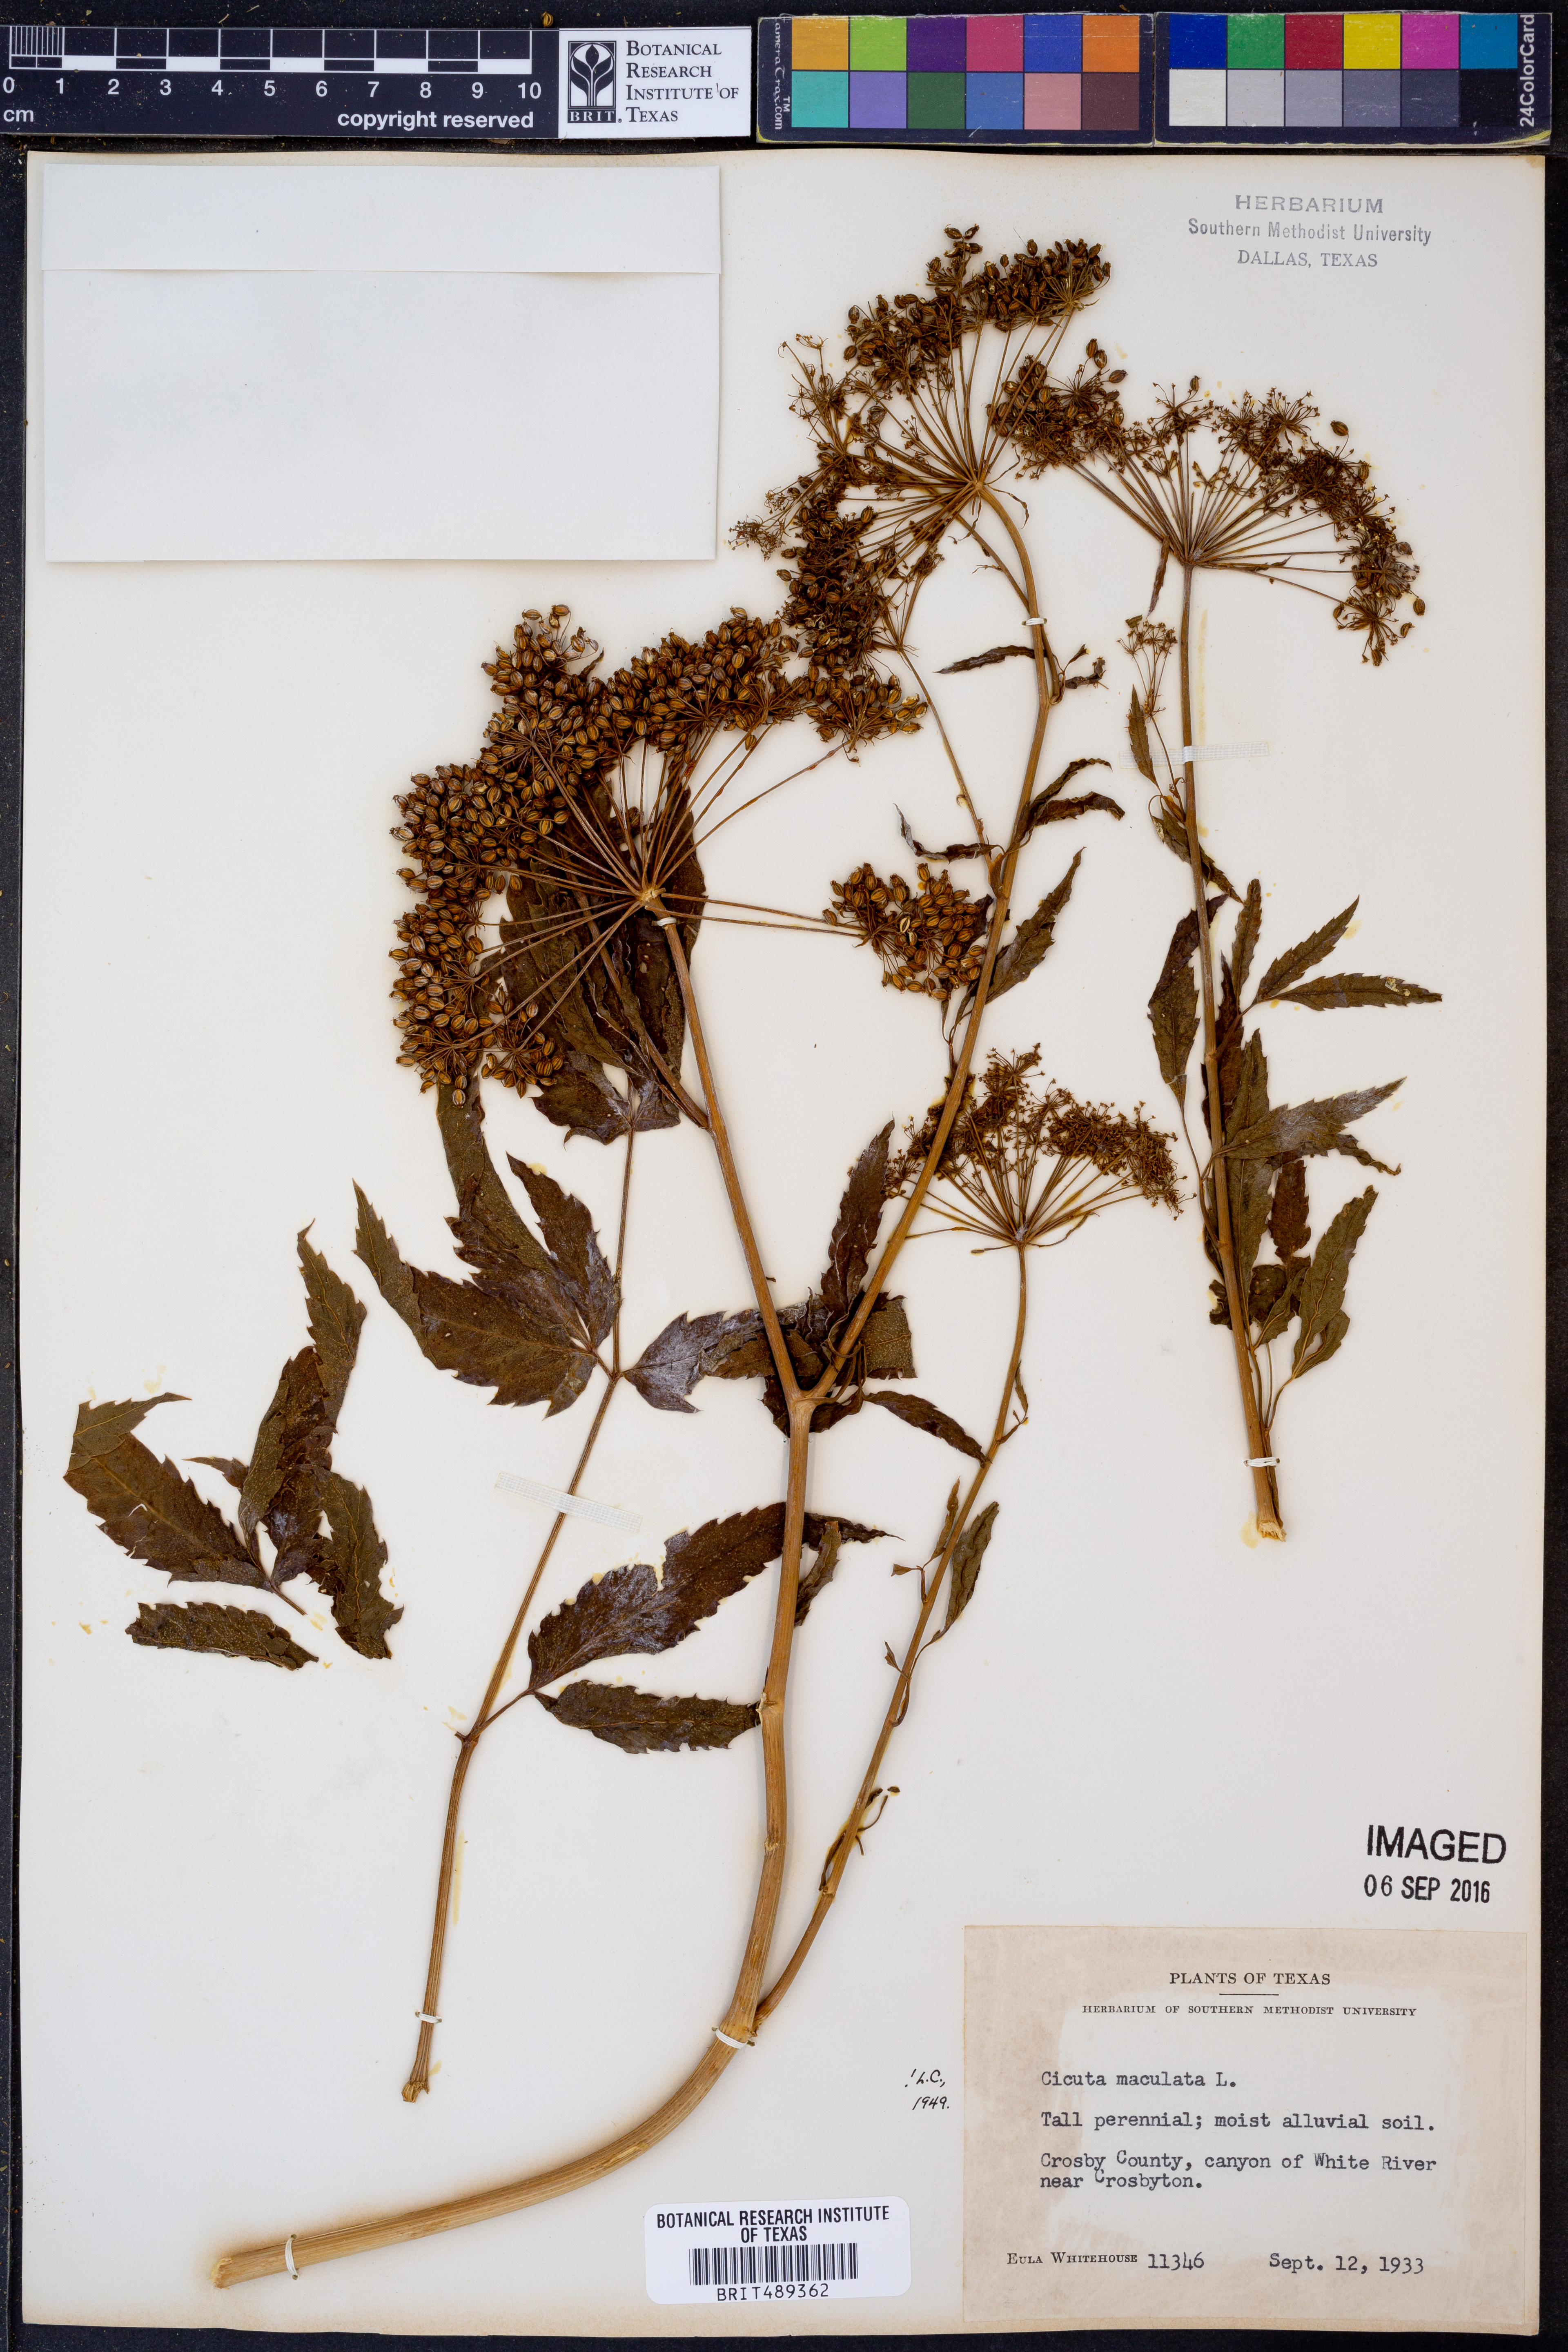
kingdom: Plantae
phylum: Tracheophyta
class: Magnoliopsida
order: Apiales
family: Apiaceae
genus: Cicuta
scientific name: Cicuta maculata
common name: Spotted cowbane
